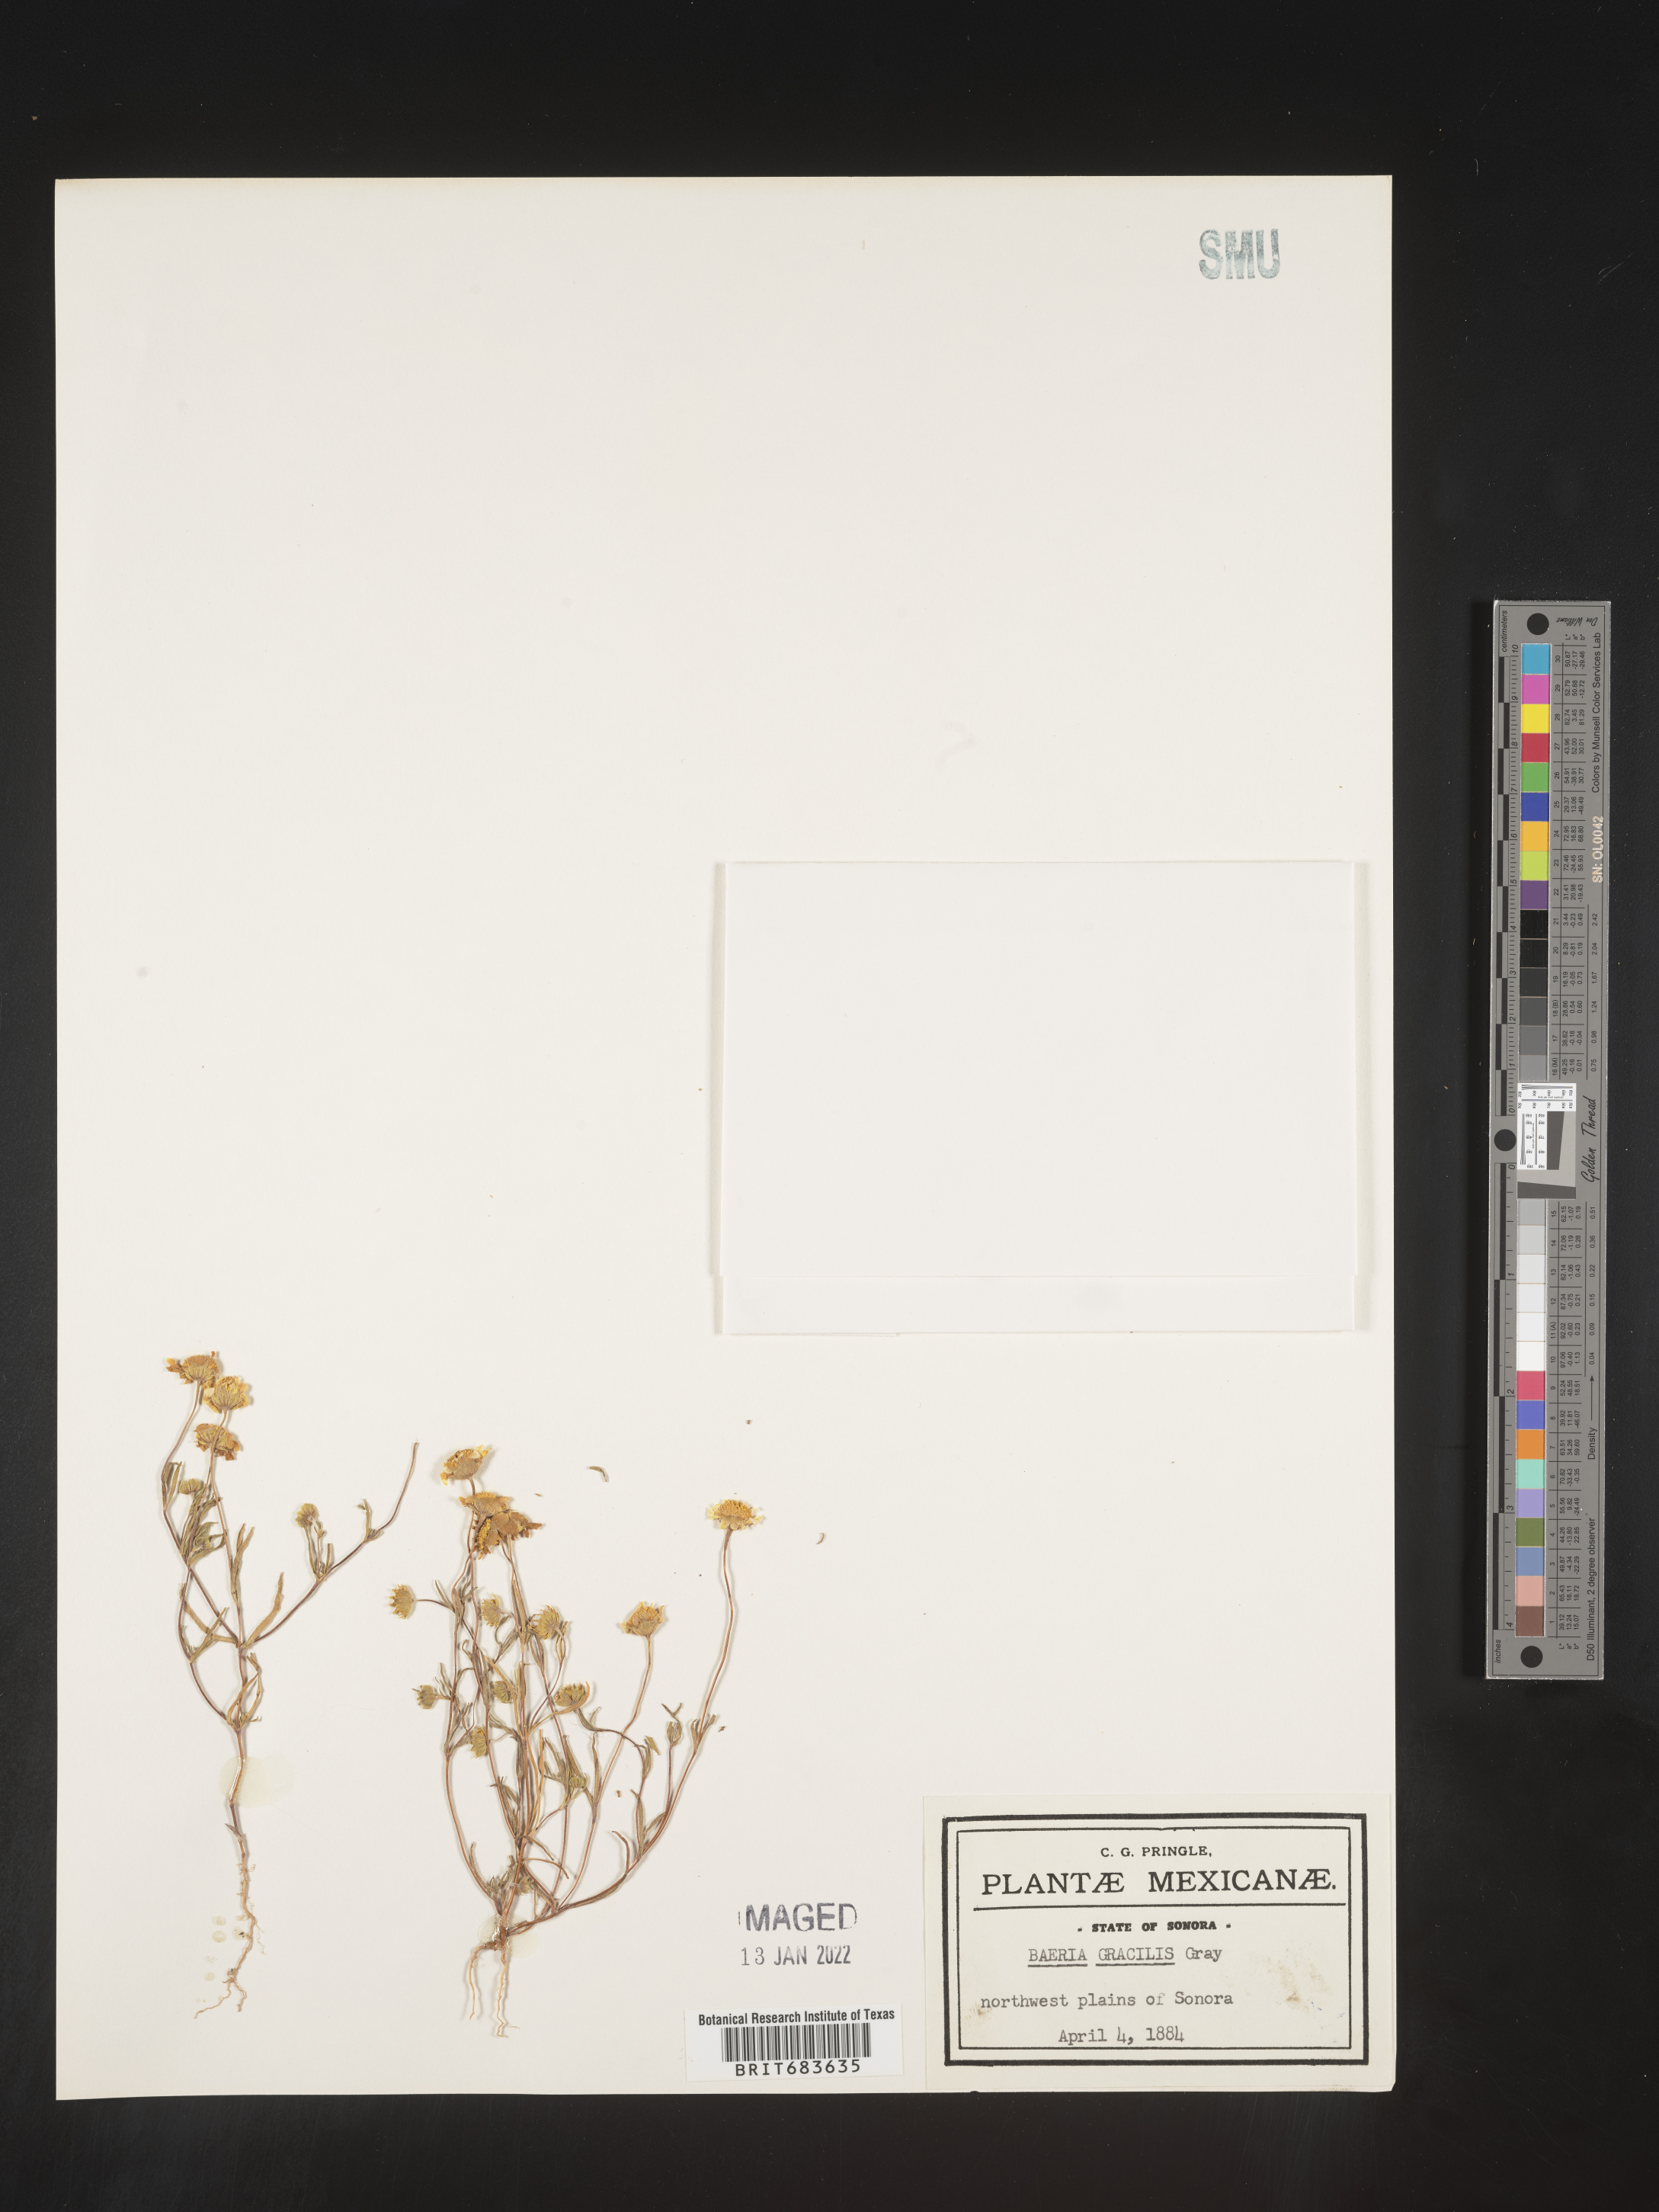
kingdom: Plantae
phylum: Tracheophyta
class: Magnoliopsida
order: Asterales
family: Asteraceae
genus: Lasthenia
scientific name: Lasthenia
